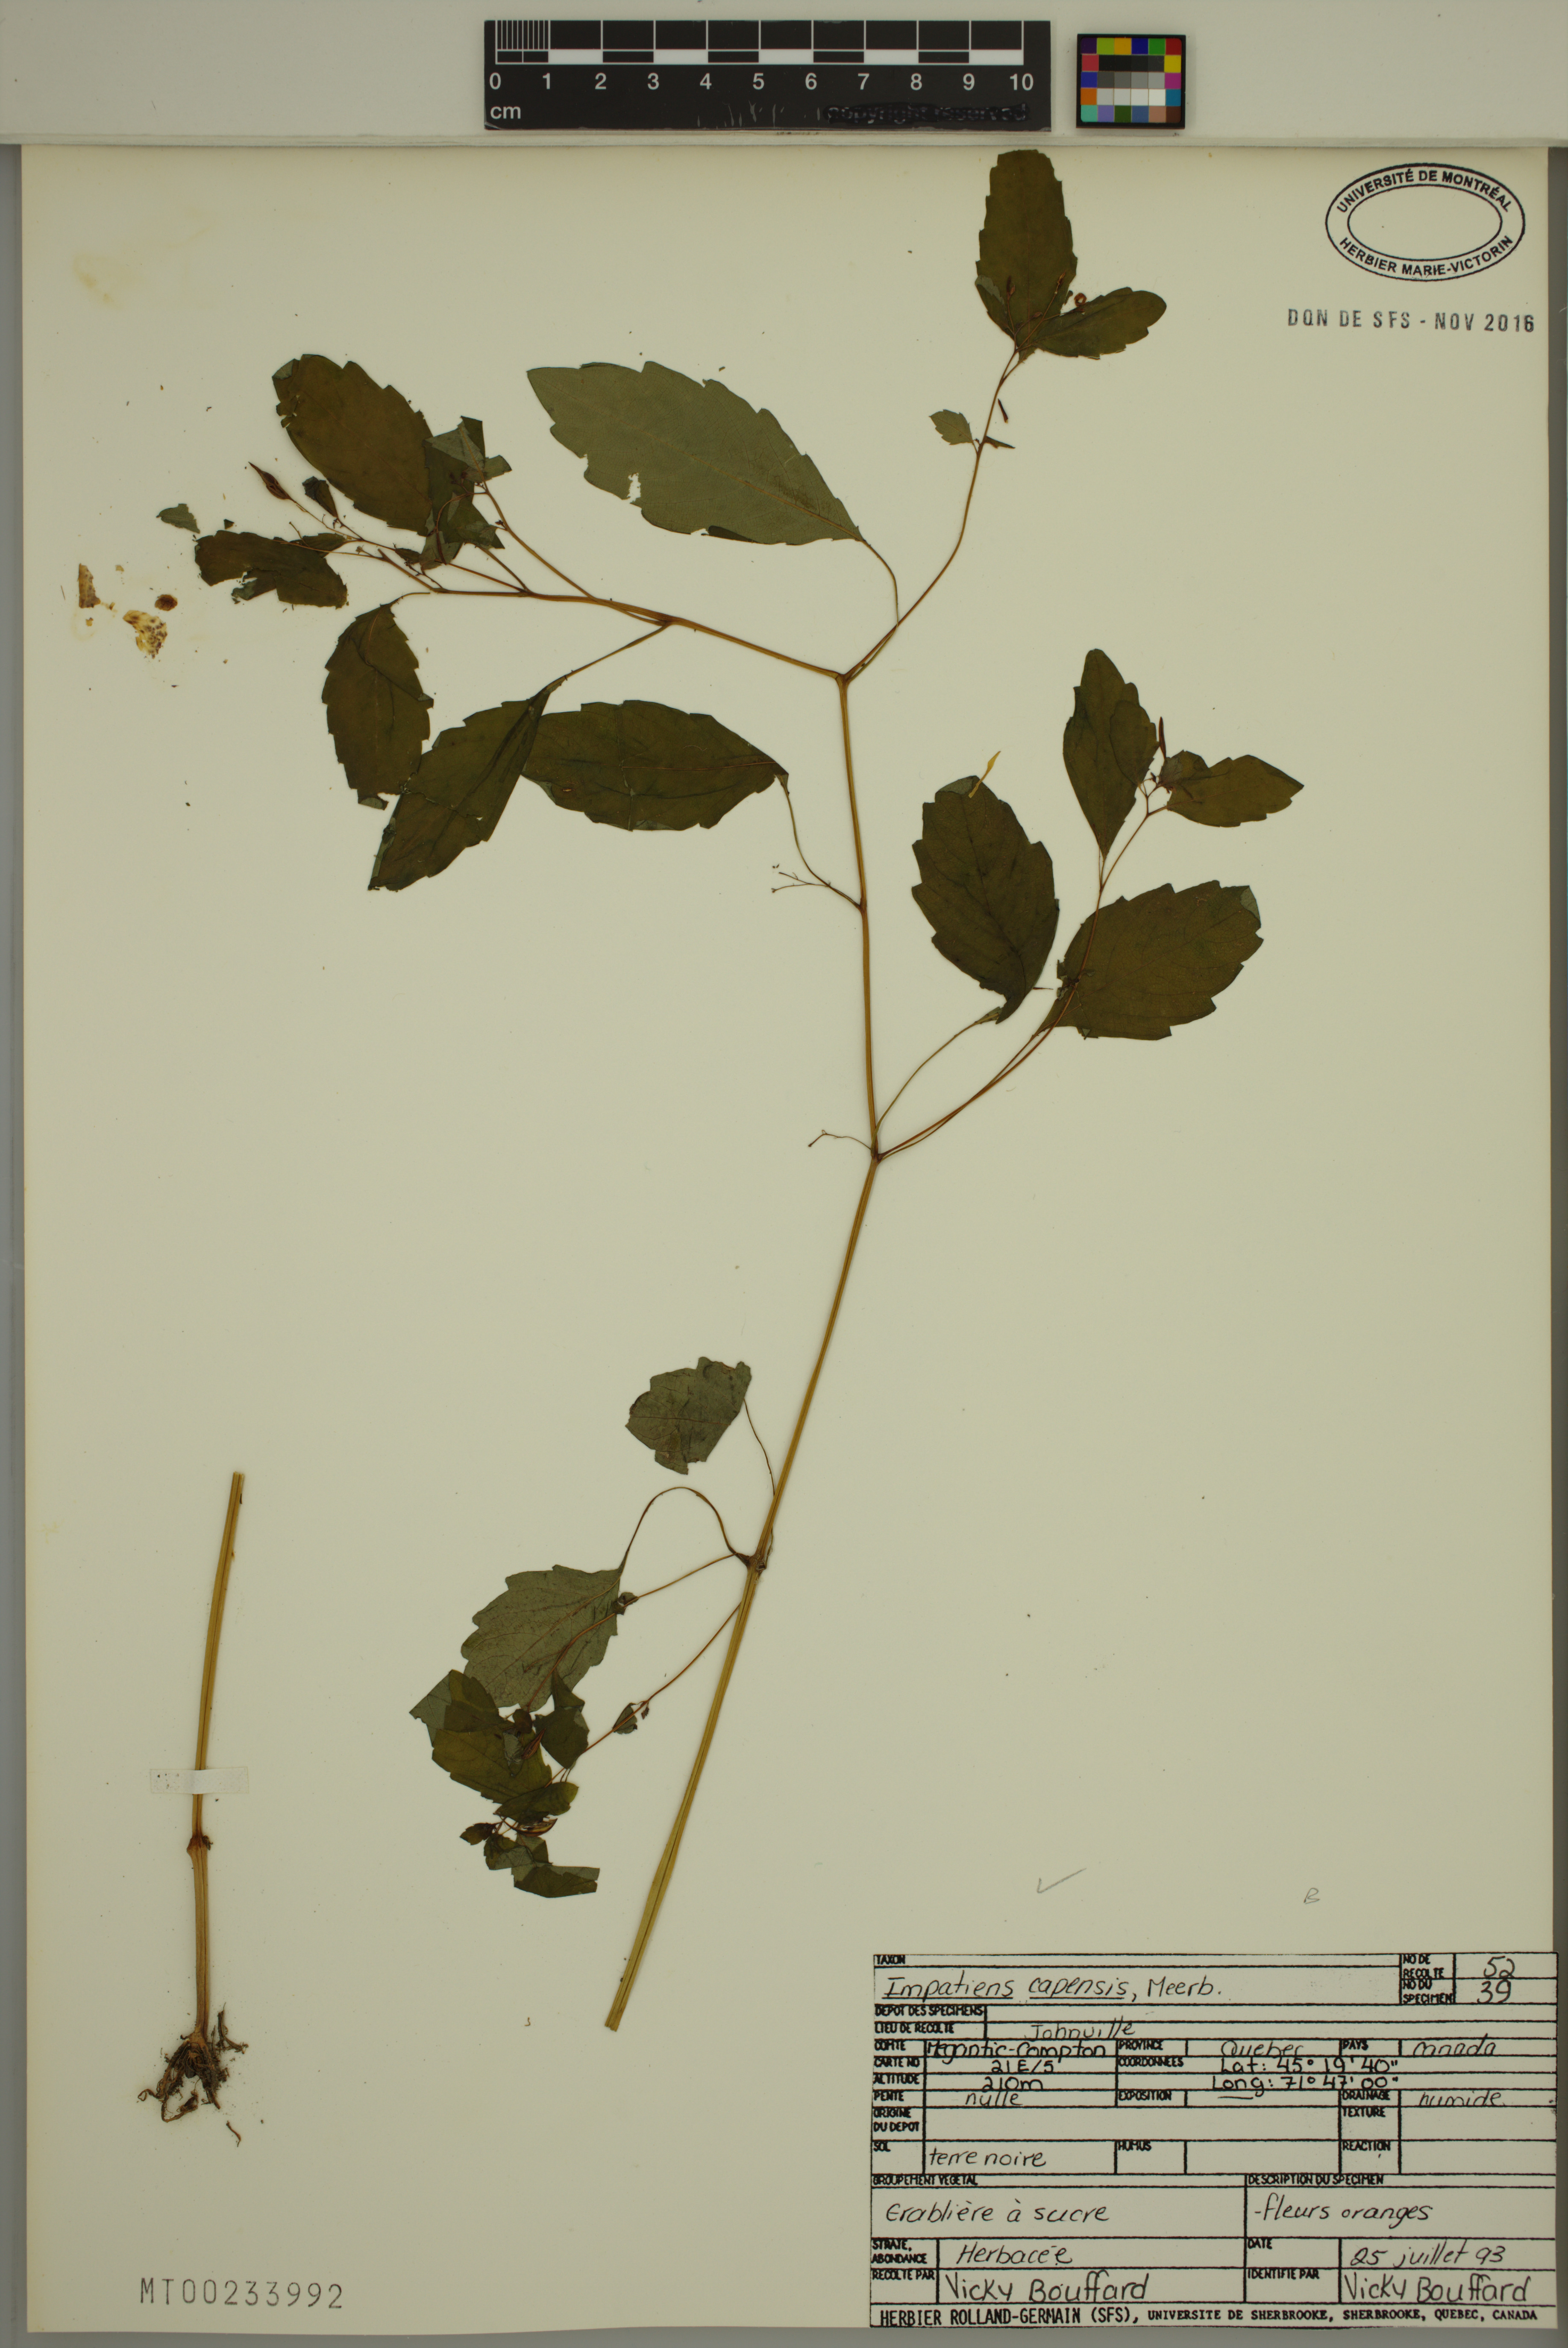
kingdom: Plantae
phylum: Tracheophyta
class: Magnoliopsida
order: Ericales
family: Balsaminaceae
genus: Impatiens
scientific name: Impatiens capensis
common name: Orange balsam
